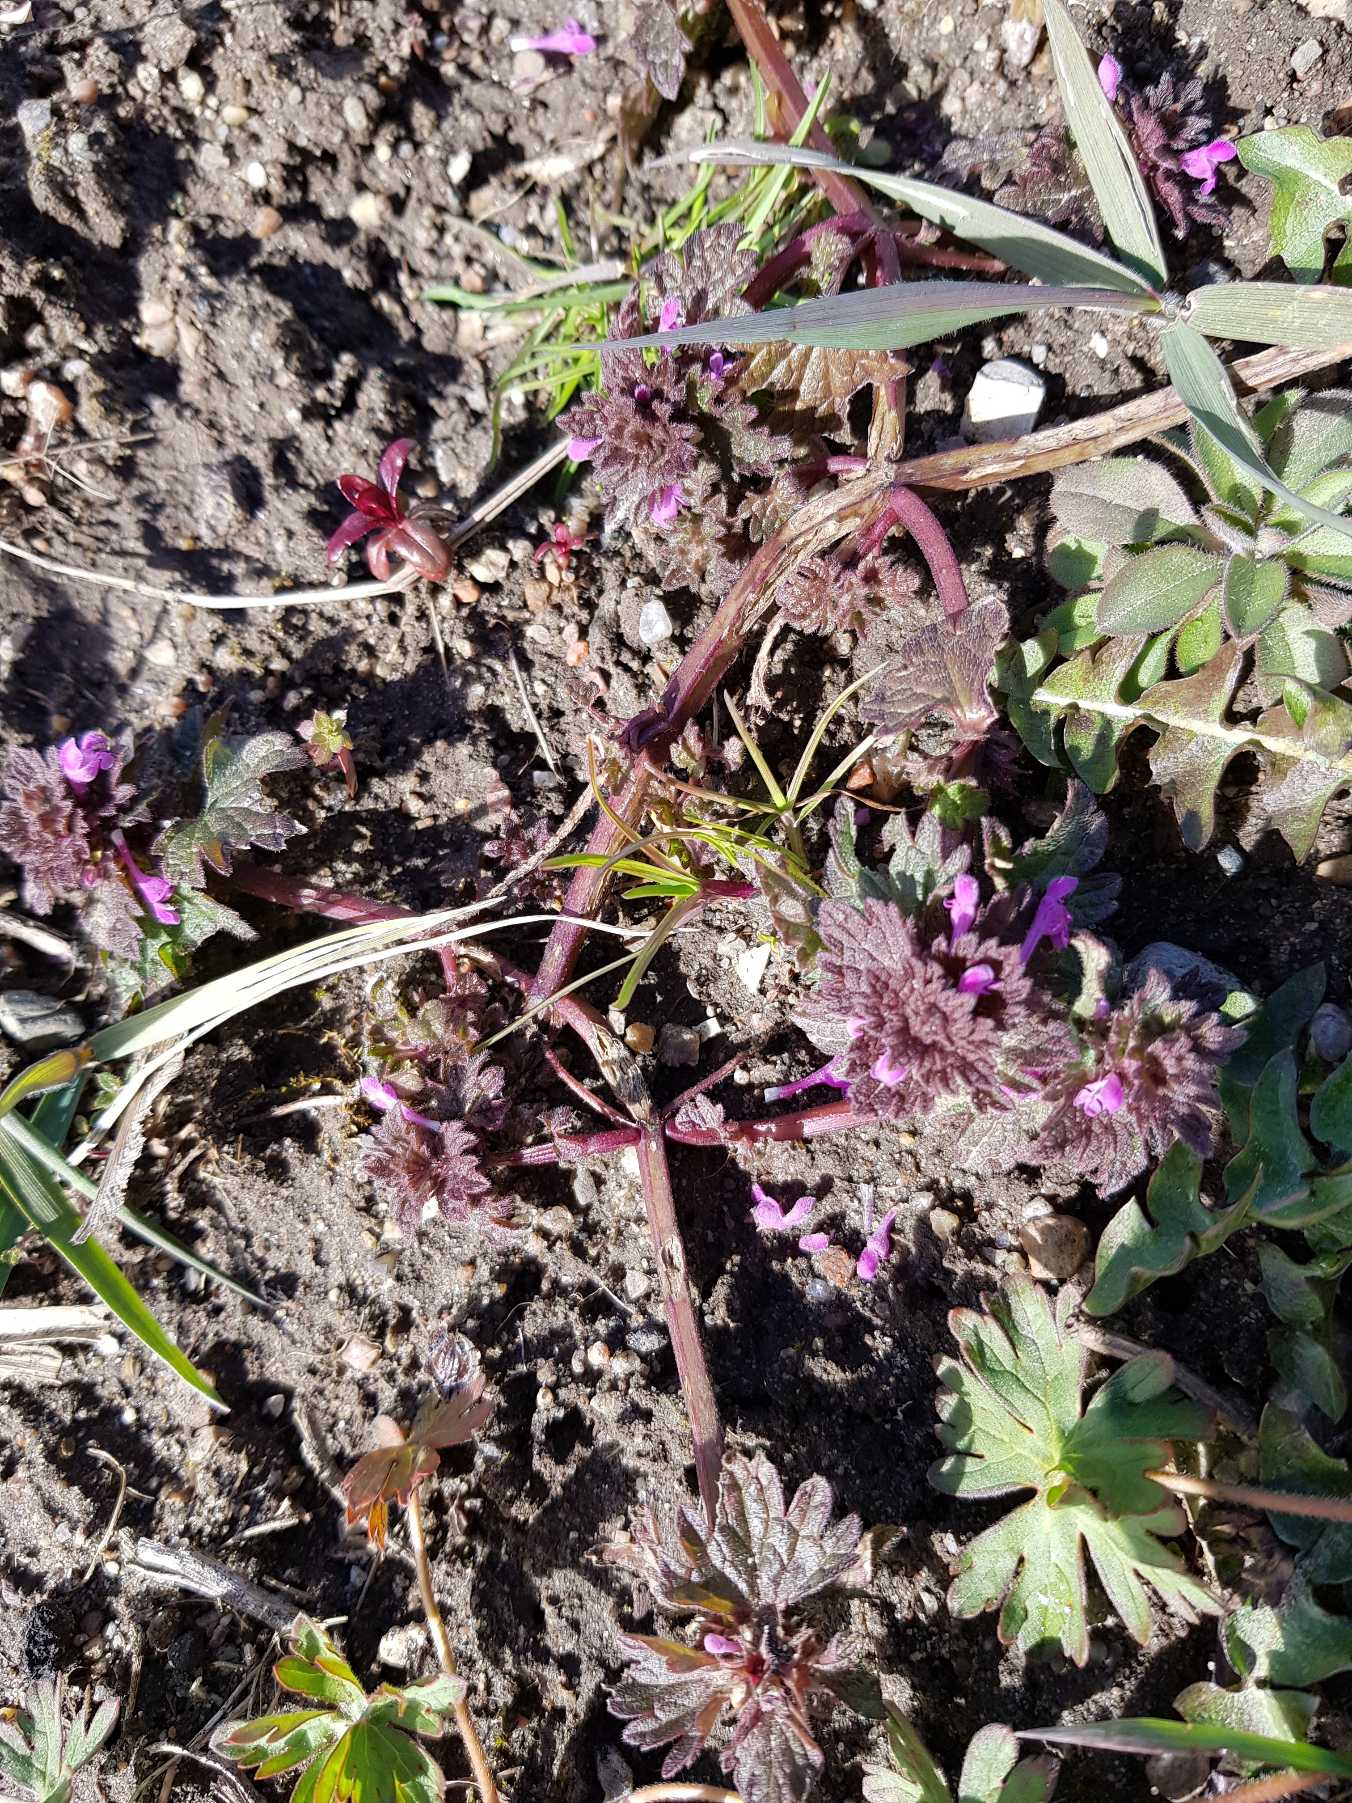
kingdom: Plantae
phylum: Tracheophyta
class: Magnoliopsida
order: Lamiales
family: Lamiaceae
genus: Lamium
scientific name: Lamium hybridum
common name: Fliget tvetand
